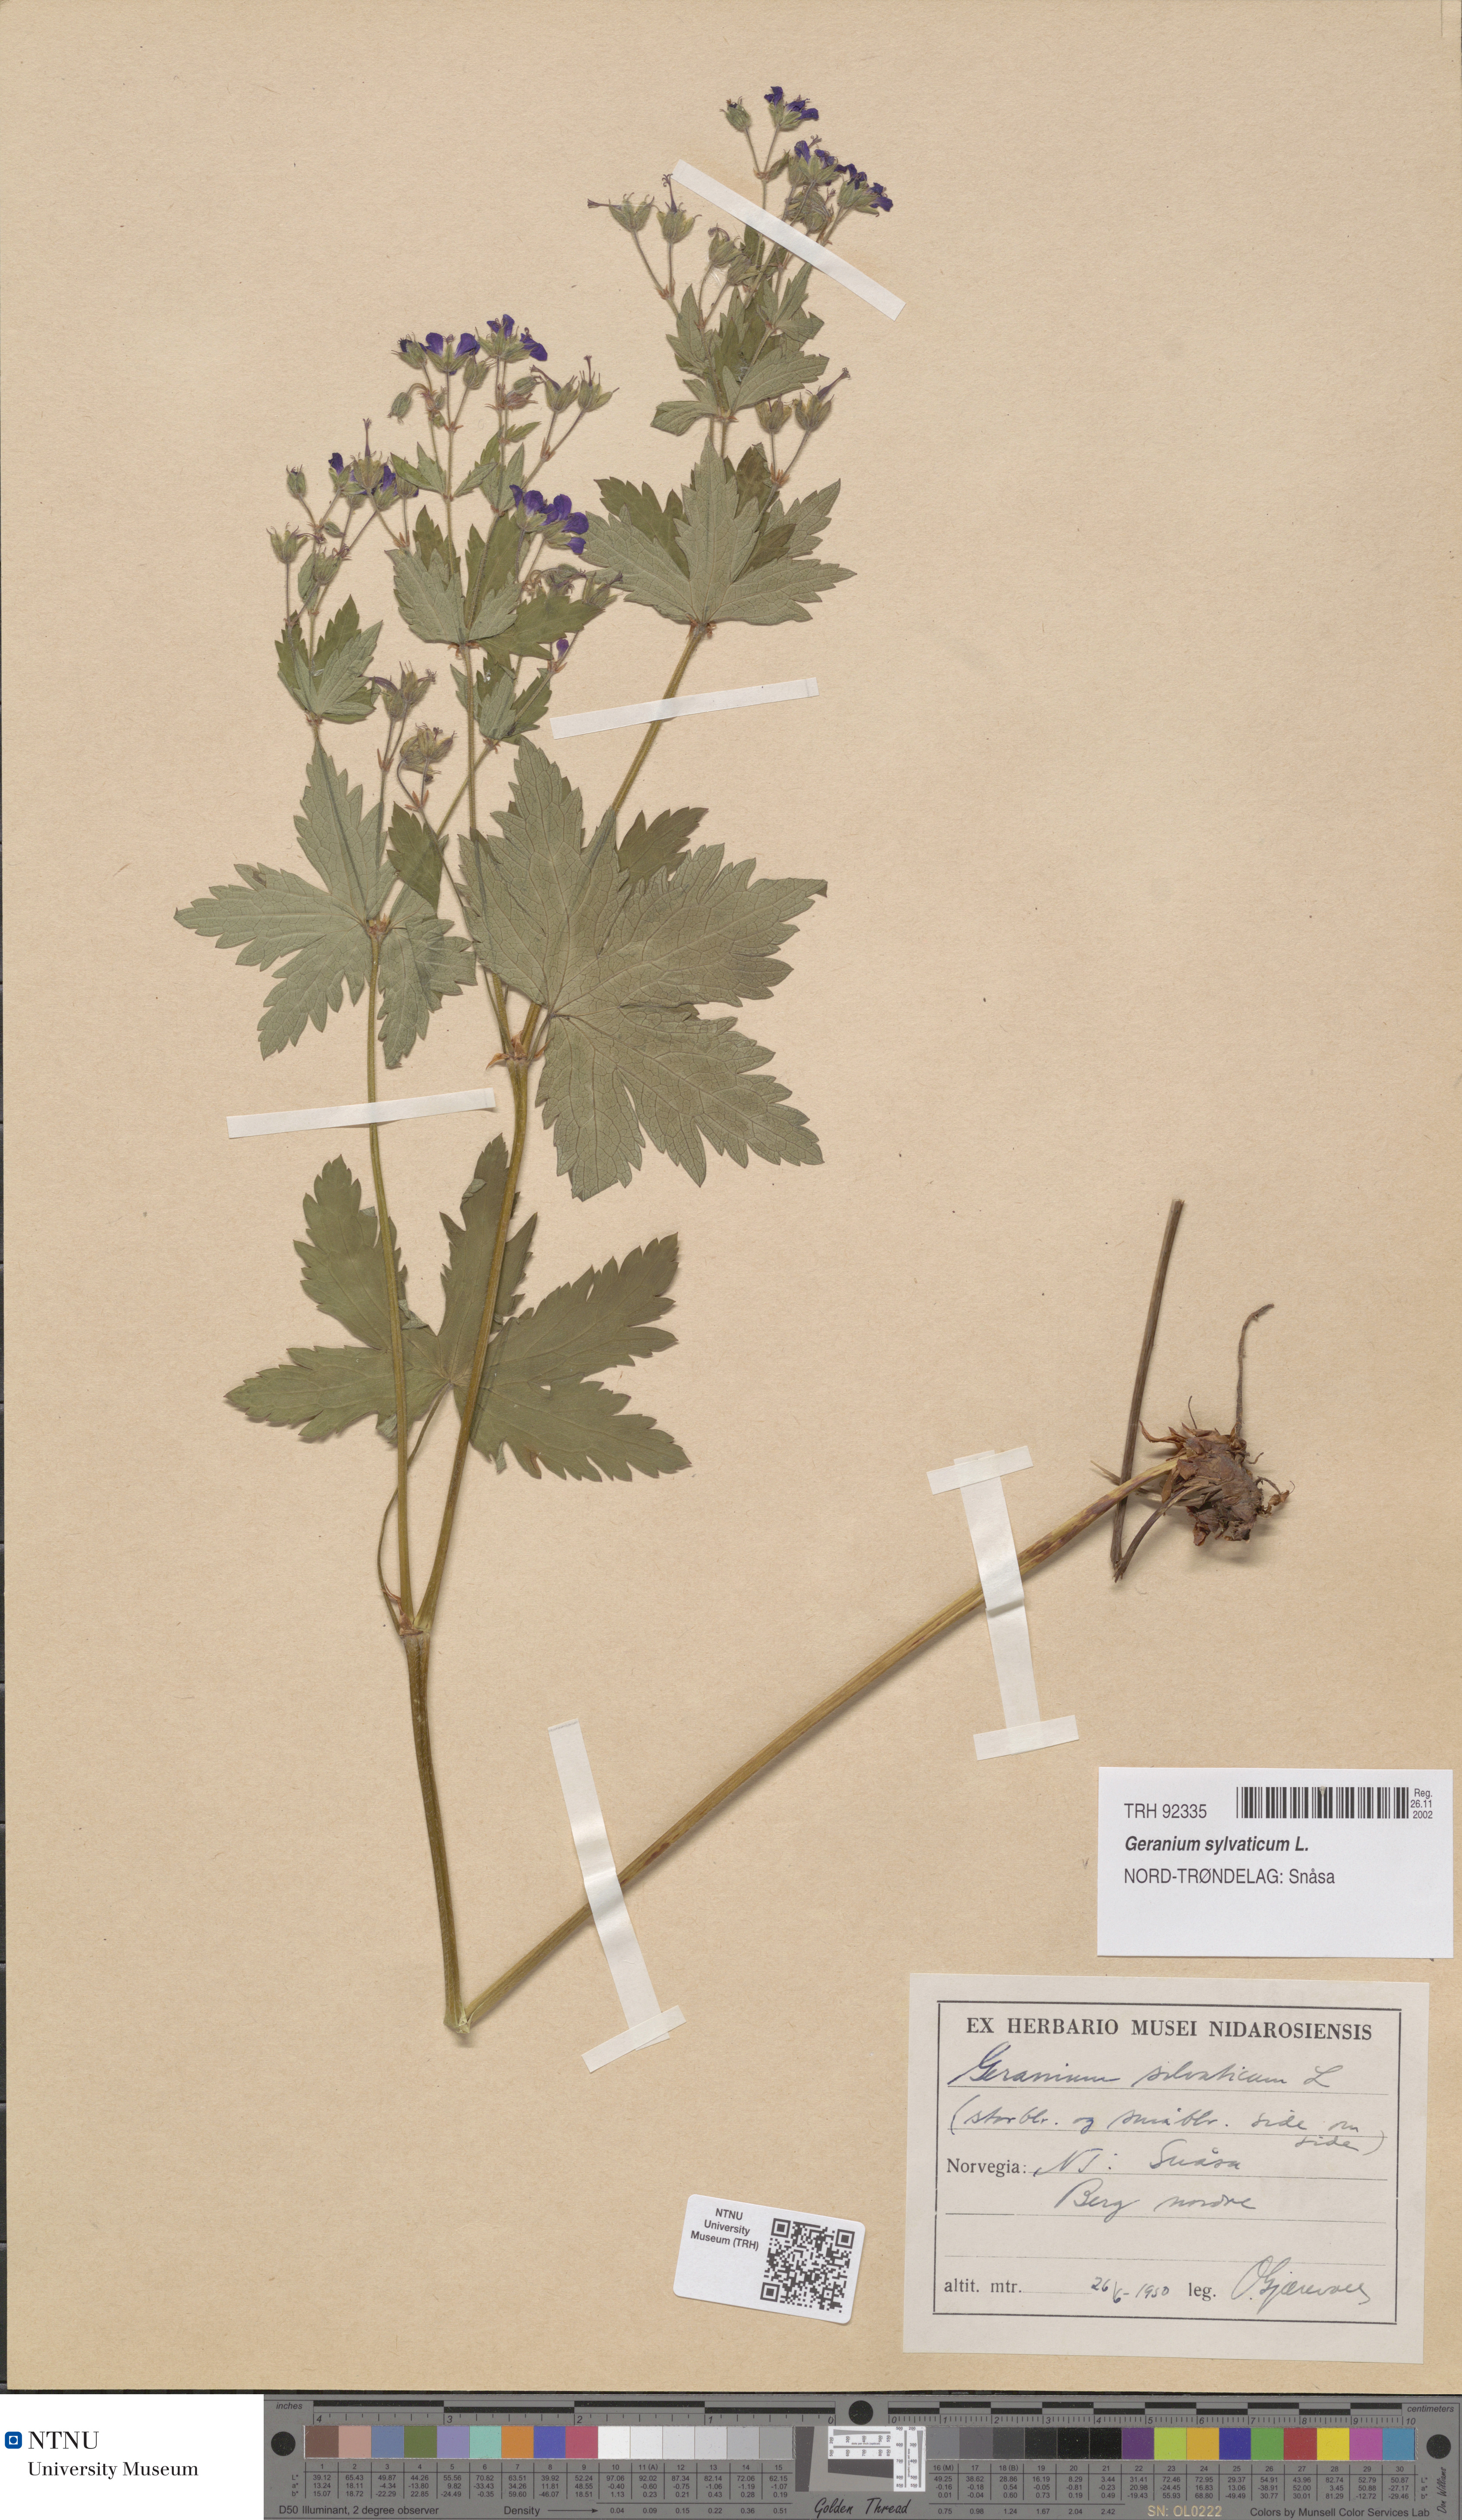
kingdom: Plantae
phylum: Tracheophyta
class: Magnoliopsida
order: Geraniales
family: Geraniaceae
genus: Geranium
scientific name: Geranium sylvaticum
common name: Wood crane's-bill
